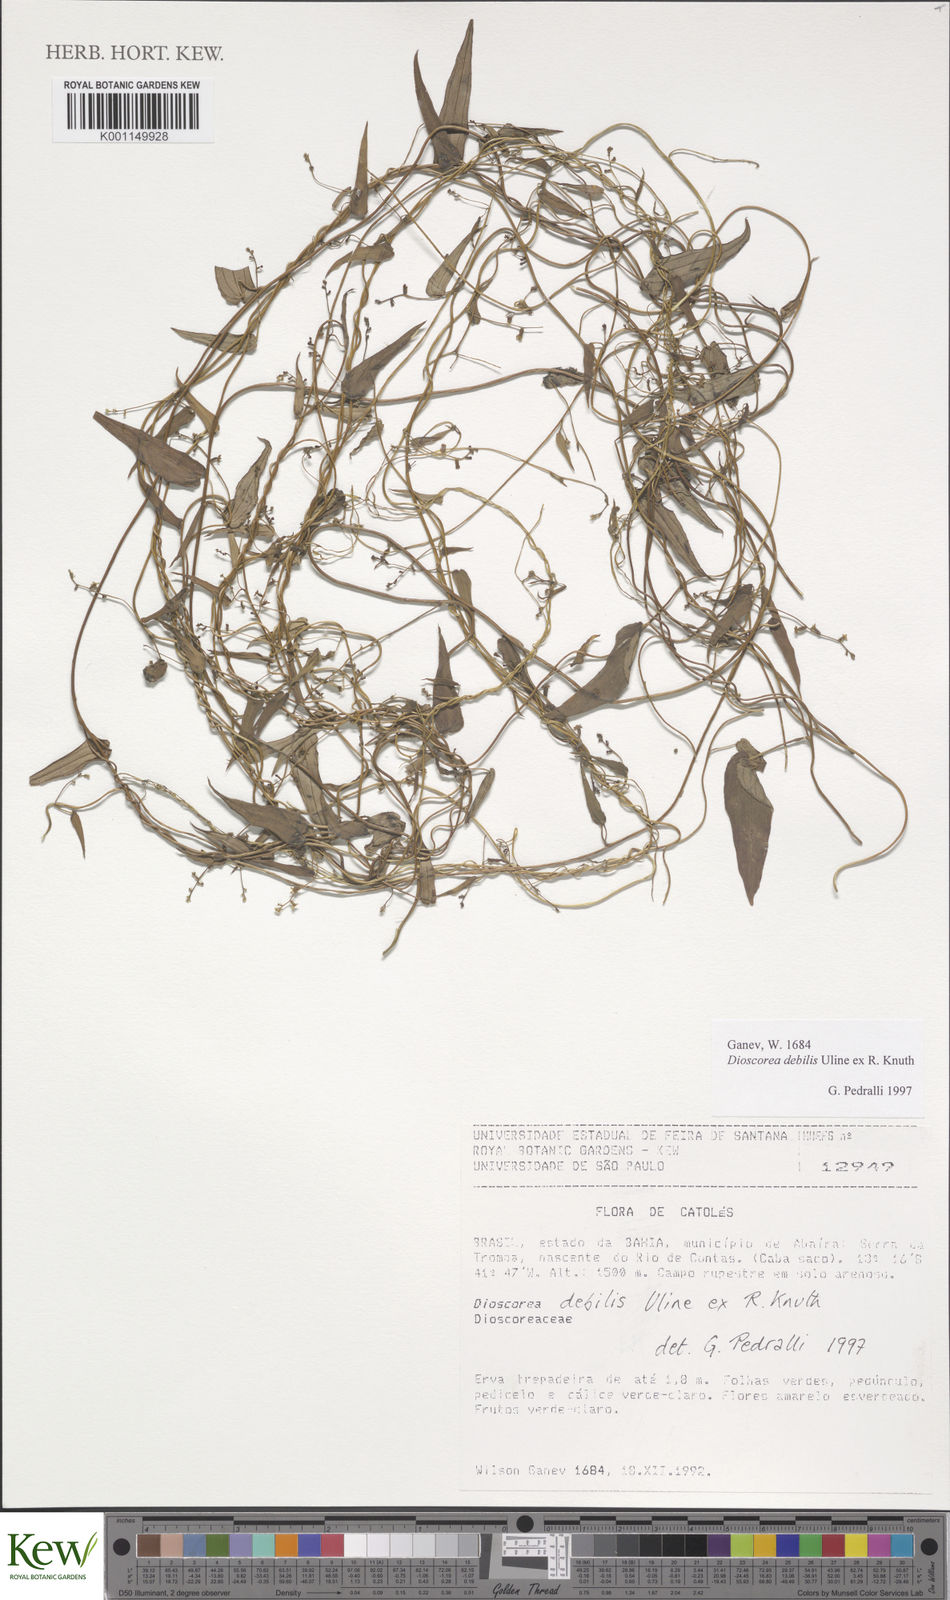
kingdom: Plantae
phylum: Tracheophyta
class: Liliopsida
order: Dioscoreales
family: Dioscoreaceae
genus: Dioscorea
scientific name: Dioscorea therezopolensis
